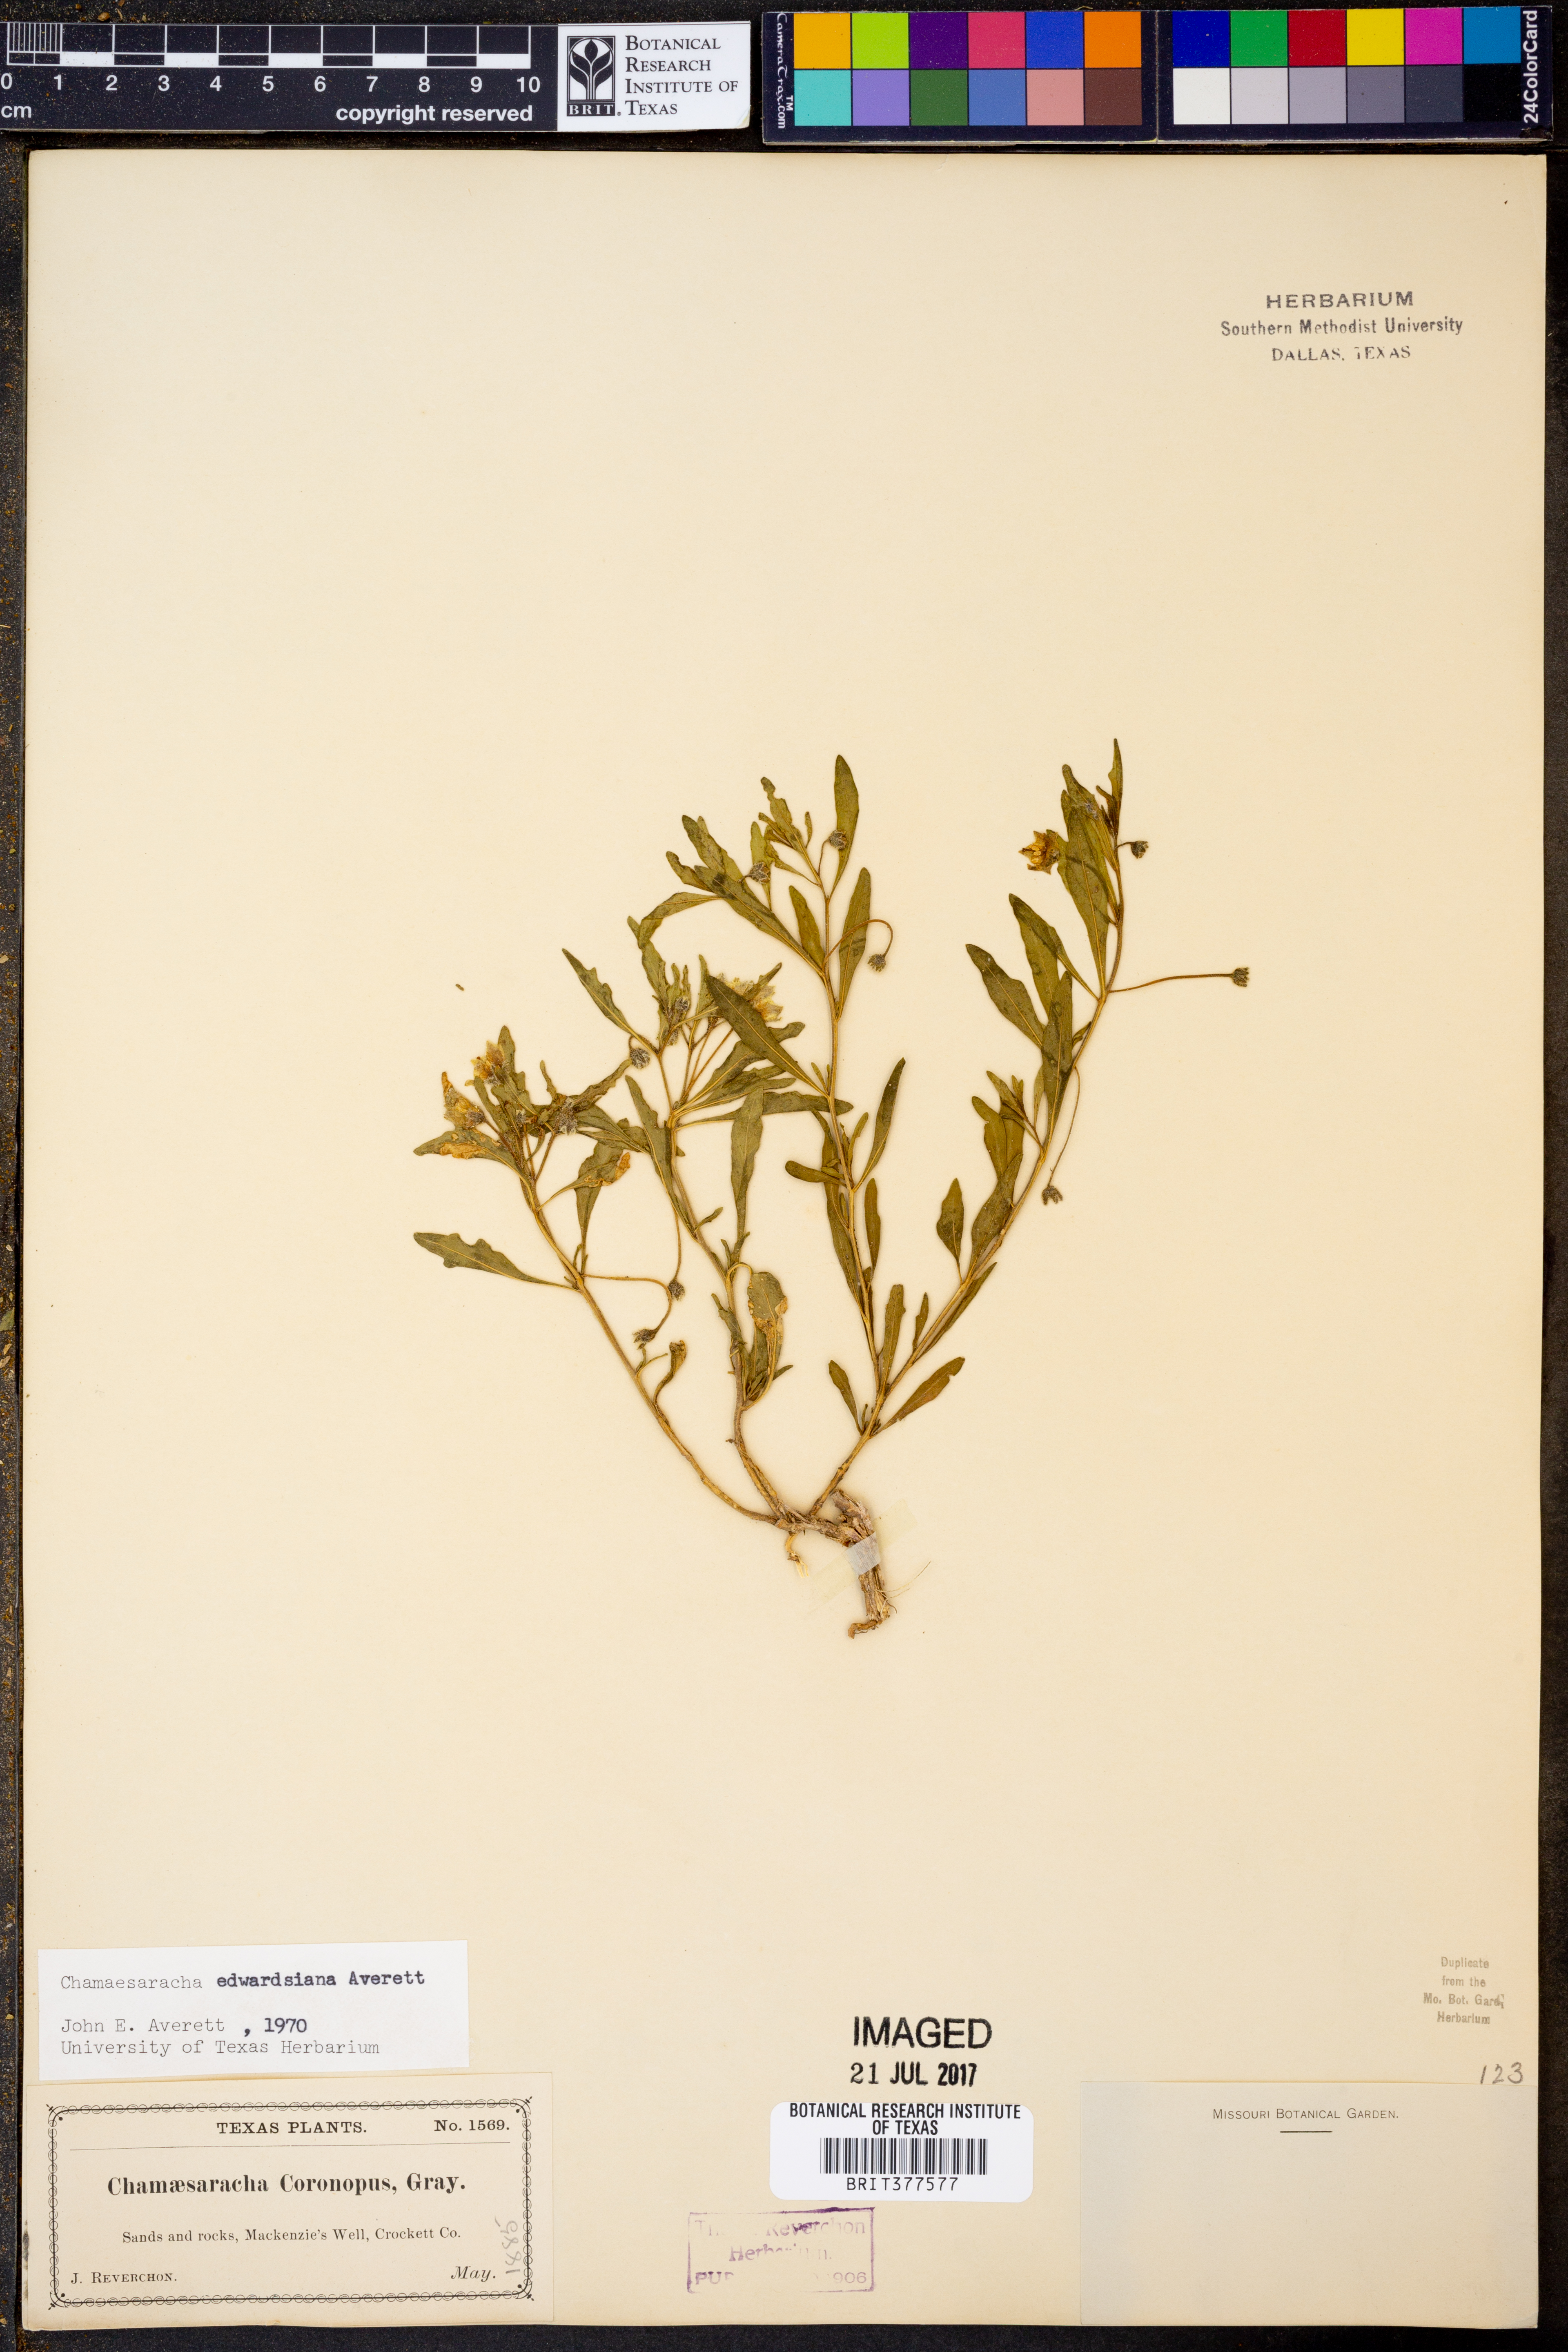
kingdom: Plantae
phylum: Tracheophyta
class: Magnoliopsida
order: Solanales
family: Solanaceae
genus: Chamaesaracha
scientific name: Chamaesaracha edwardsiana
